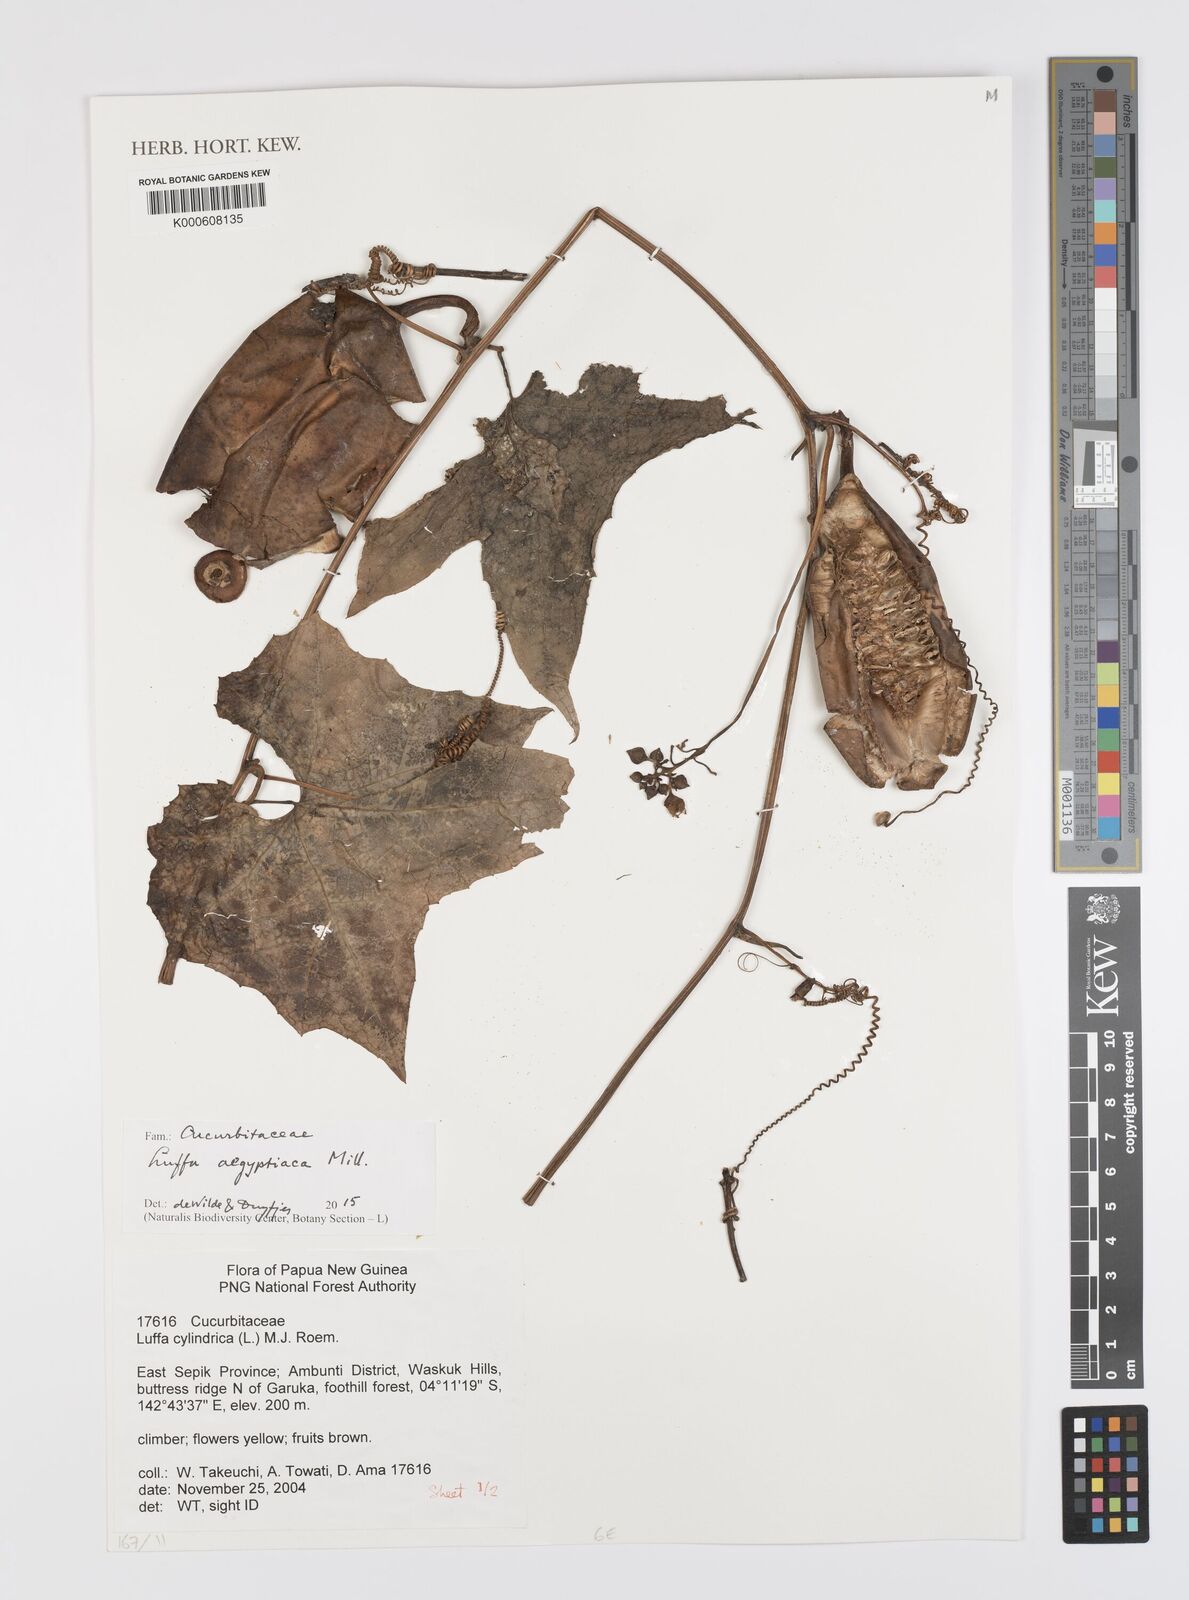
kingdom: Plantae
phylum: Tracheophyta
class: Magnoliopsida
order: Cucurbitales
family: Cucurbitaceae
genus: Luffa
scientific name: Luffa aegyptiaca
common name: Sponge gourd
